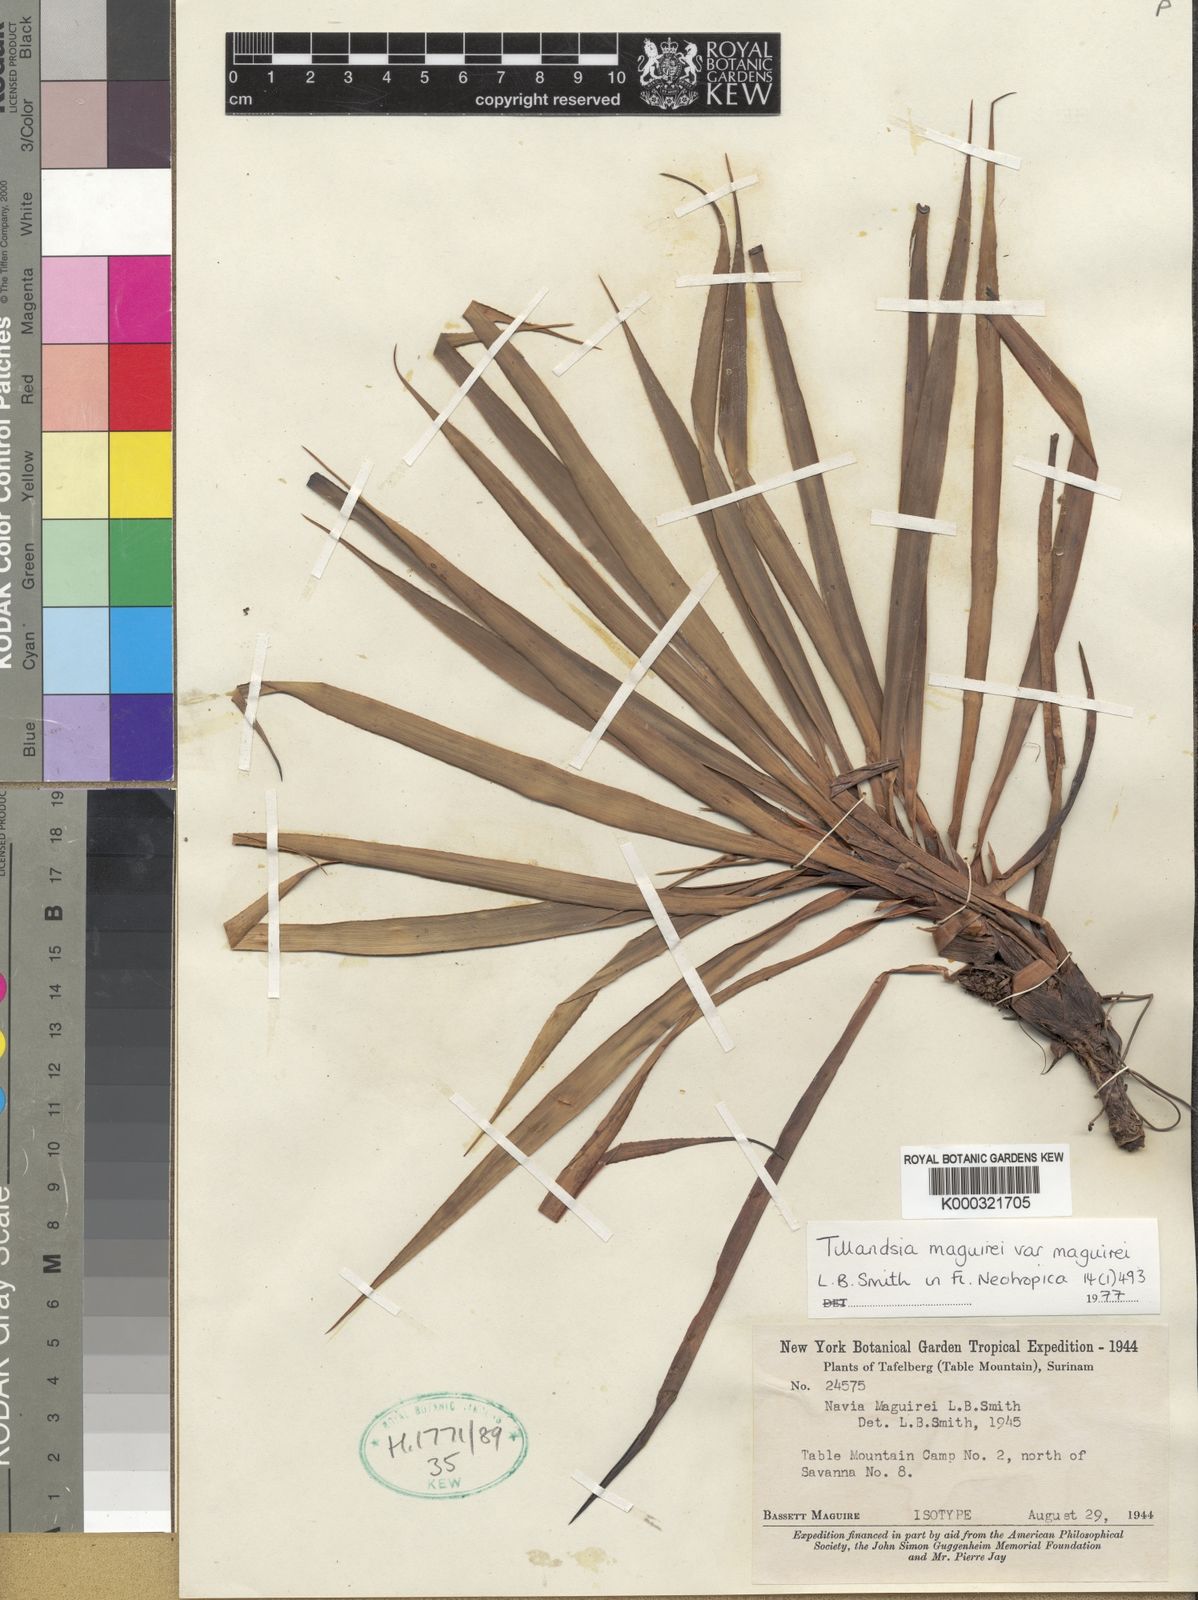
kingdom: Plantae
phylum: Tracheophyta
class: Liliopsida
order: Poales
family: Bromeliaceae
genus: Navia
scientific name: Navia maguirei
